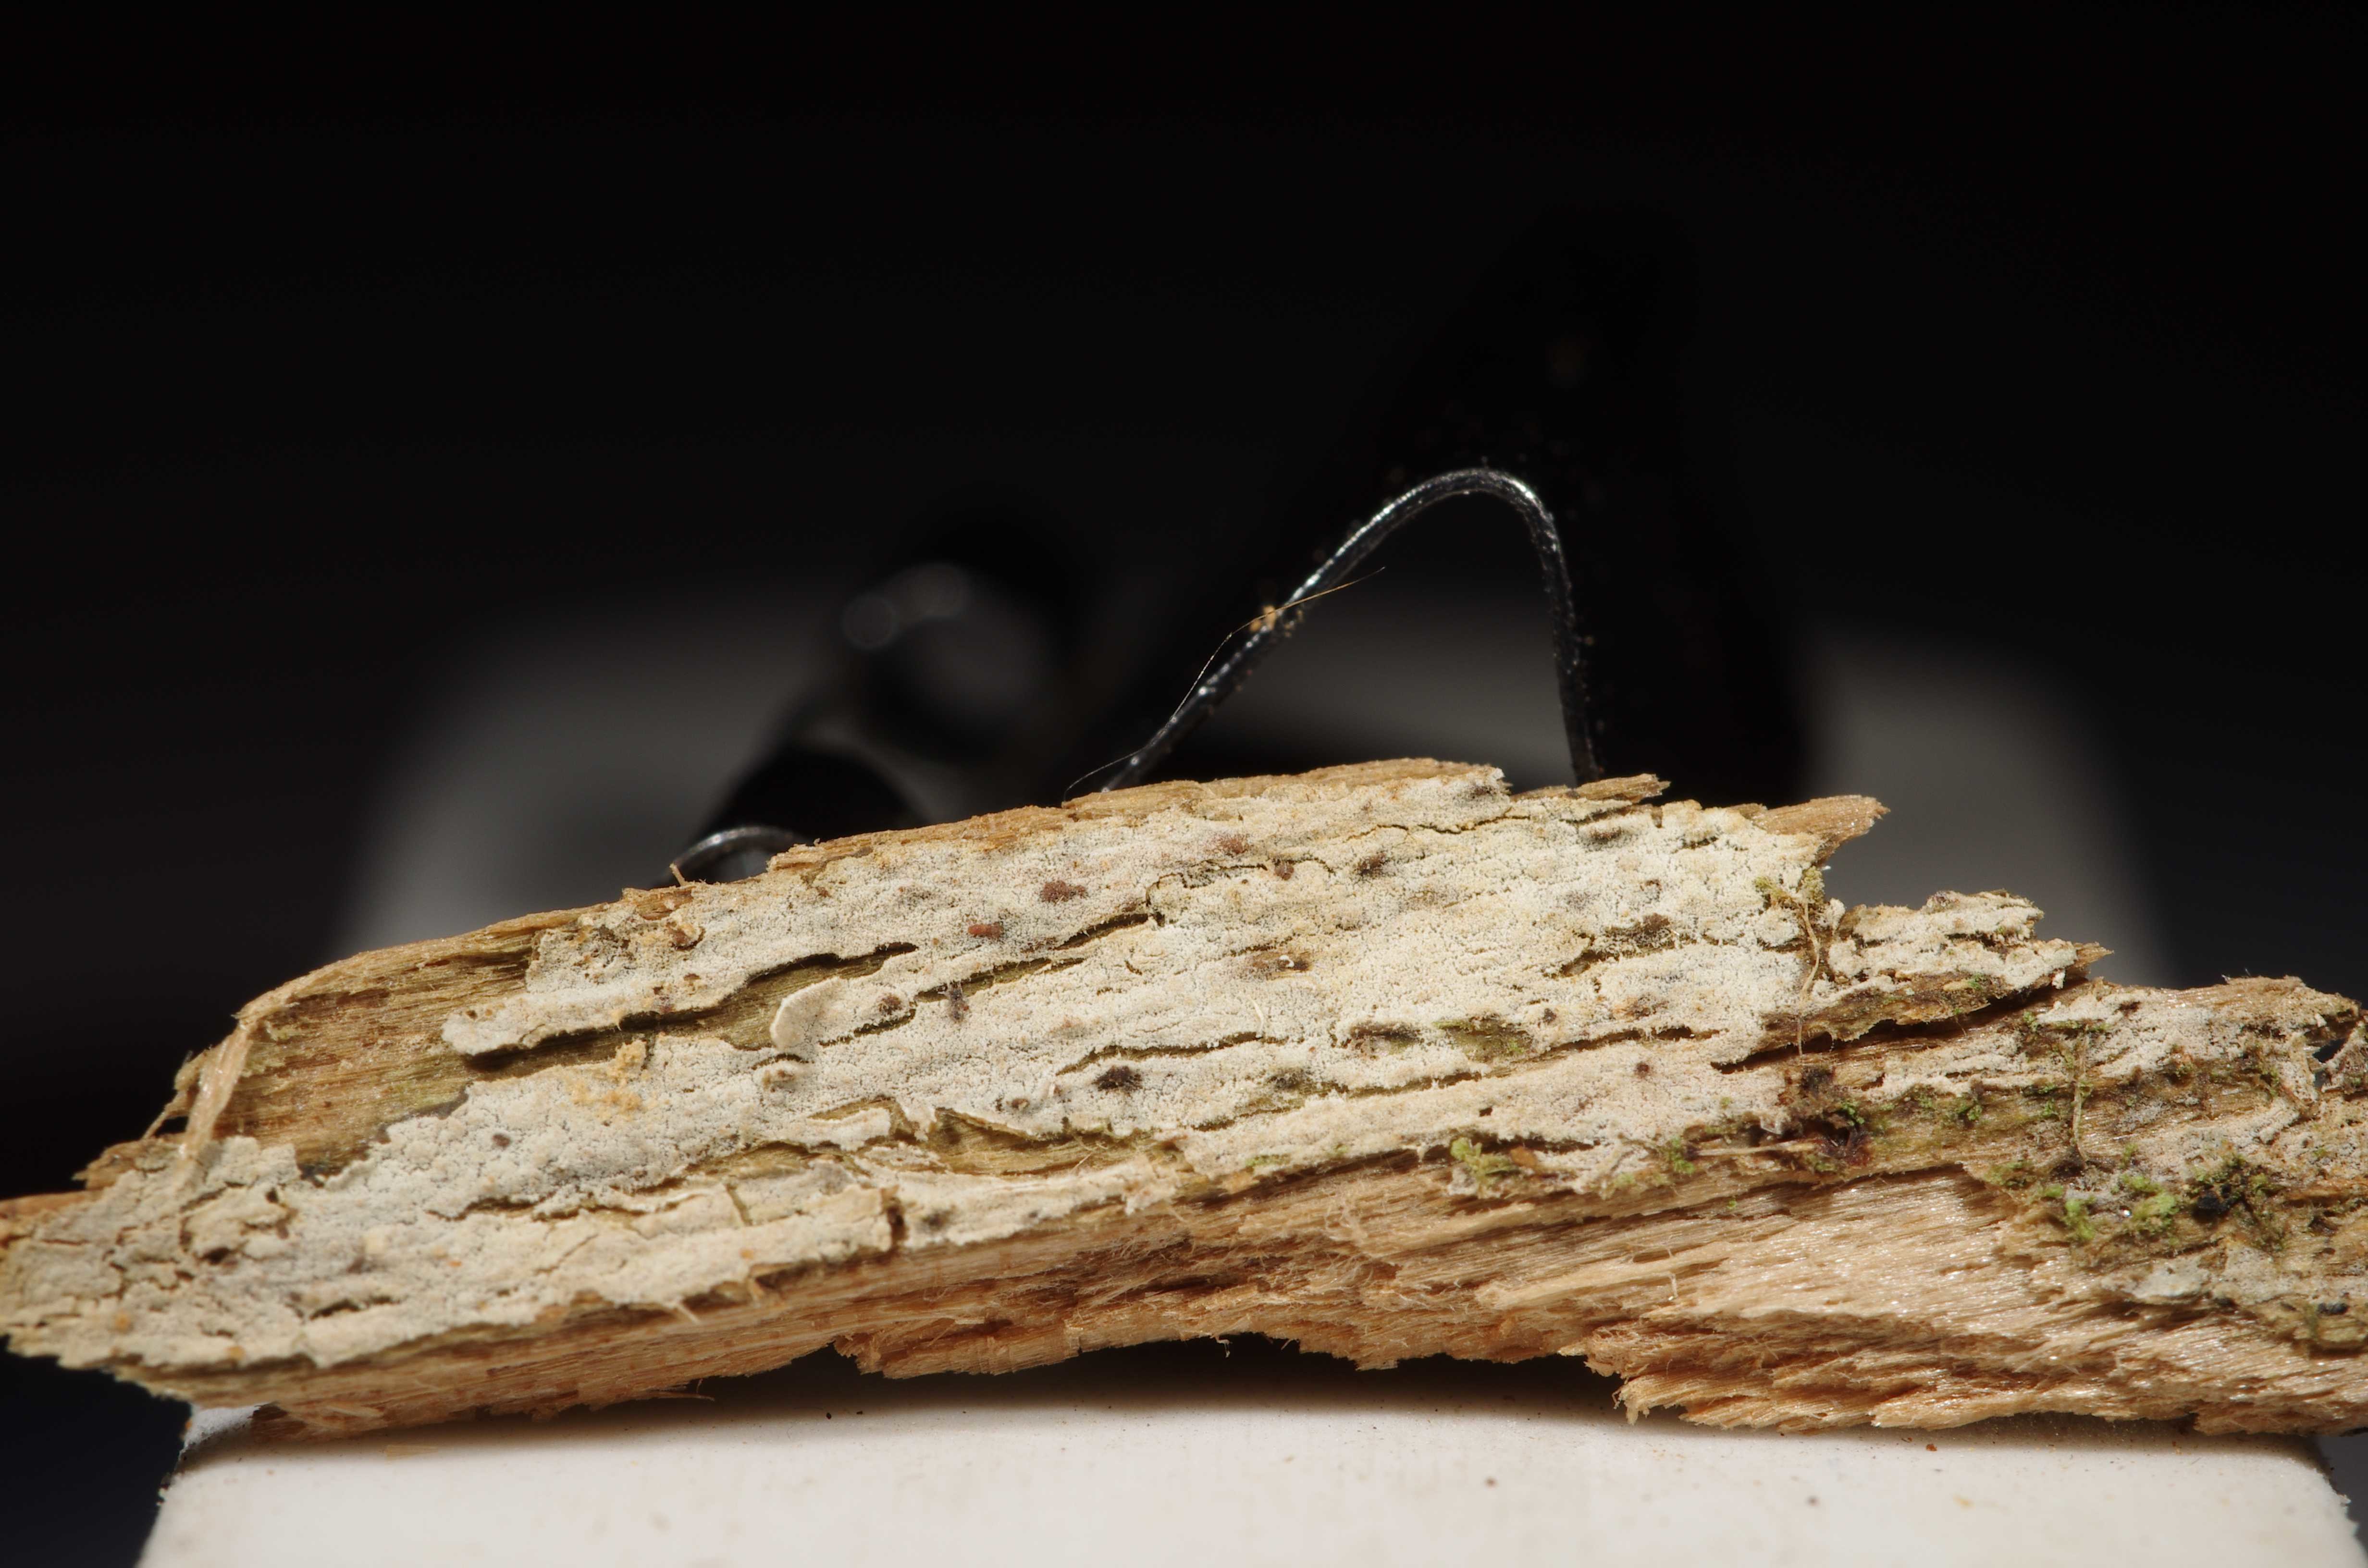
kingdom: Fungi
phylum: Basidiomycota
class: Agaricomycetes
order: Hymenochaetales
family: Hymenochaetaceae
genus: Tubulicrinis
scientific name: Tubulicrinis
